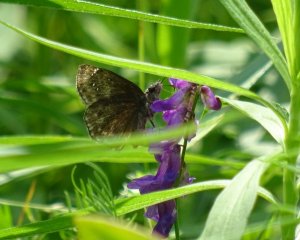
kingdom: Animalia
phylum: Arthropoda
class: Insecta
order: Lepidoptera
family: Hesperiidae
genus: Gesta
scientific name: Gesta
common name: Wild Indigo Duskywing
